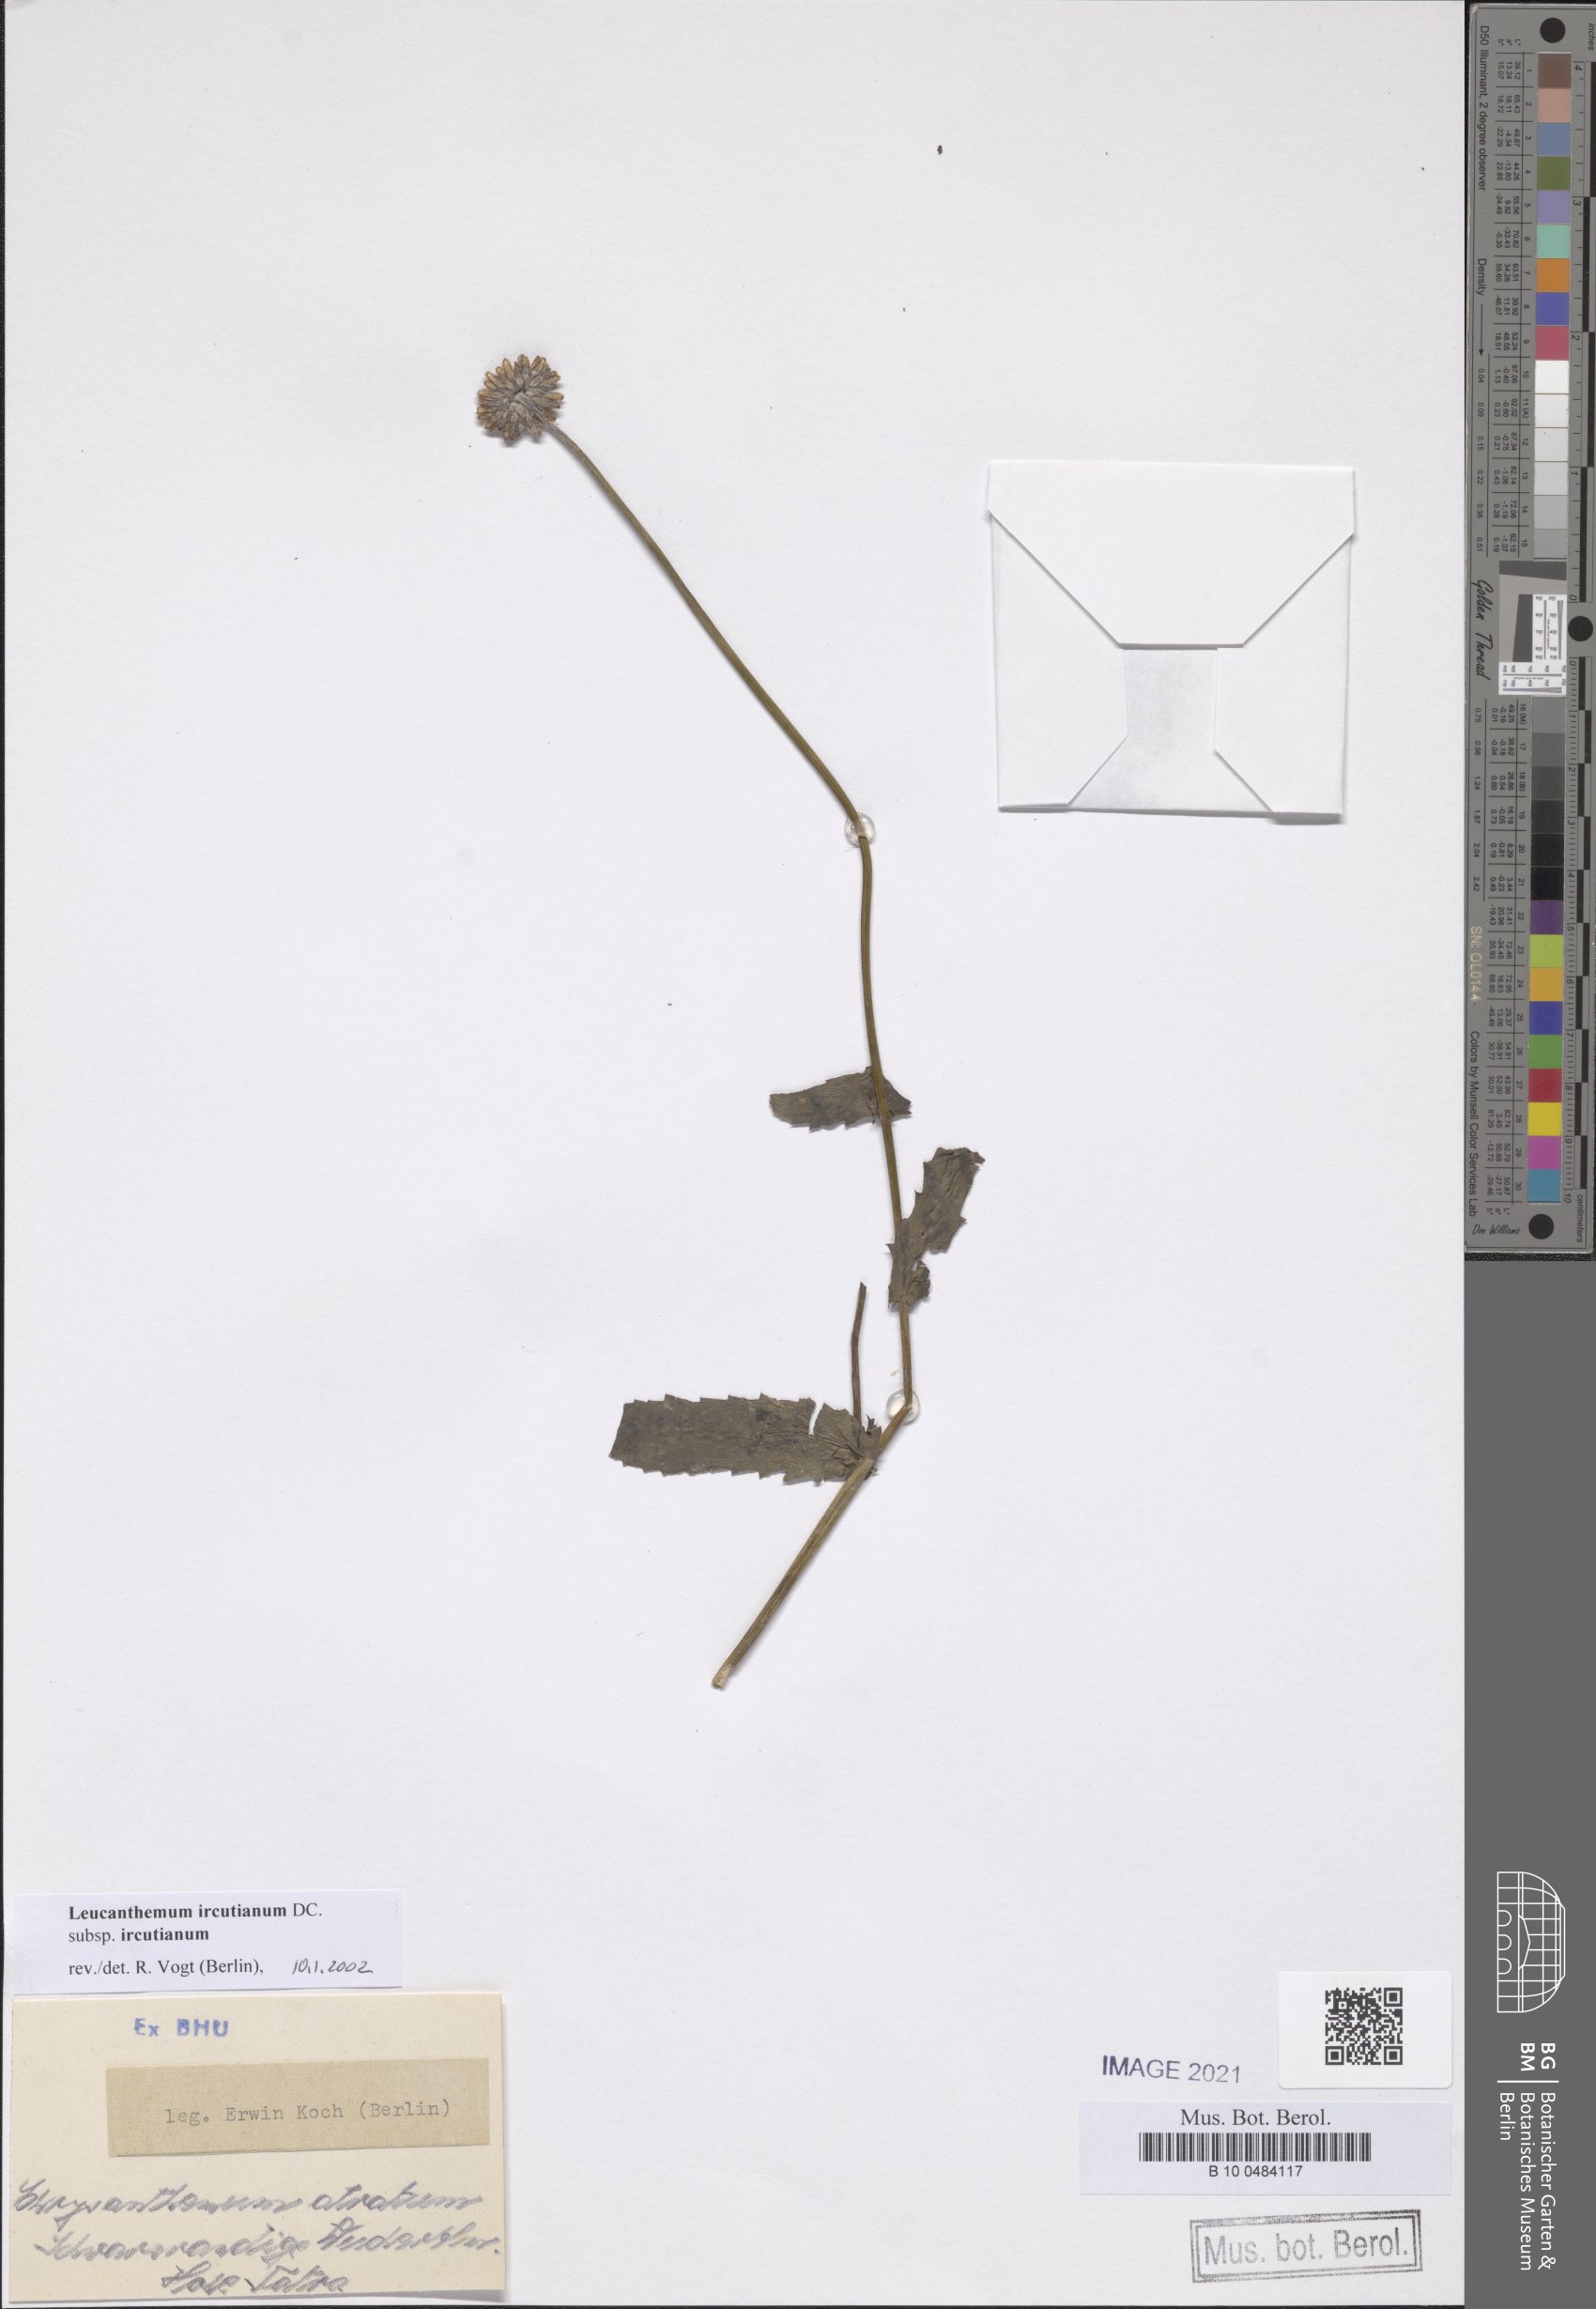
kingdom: Plantae
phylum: Tracheophyta
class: Magnoliopsida
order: Asterales
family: Asteraceae
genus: Leucanthemum
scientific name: Leucanthemum ircutianum
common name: Daisy
